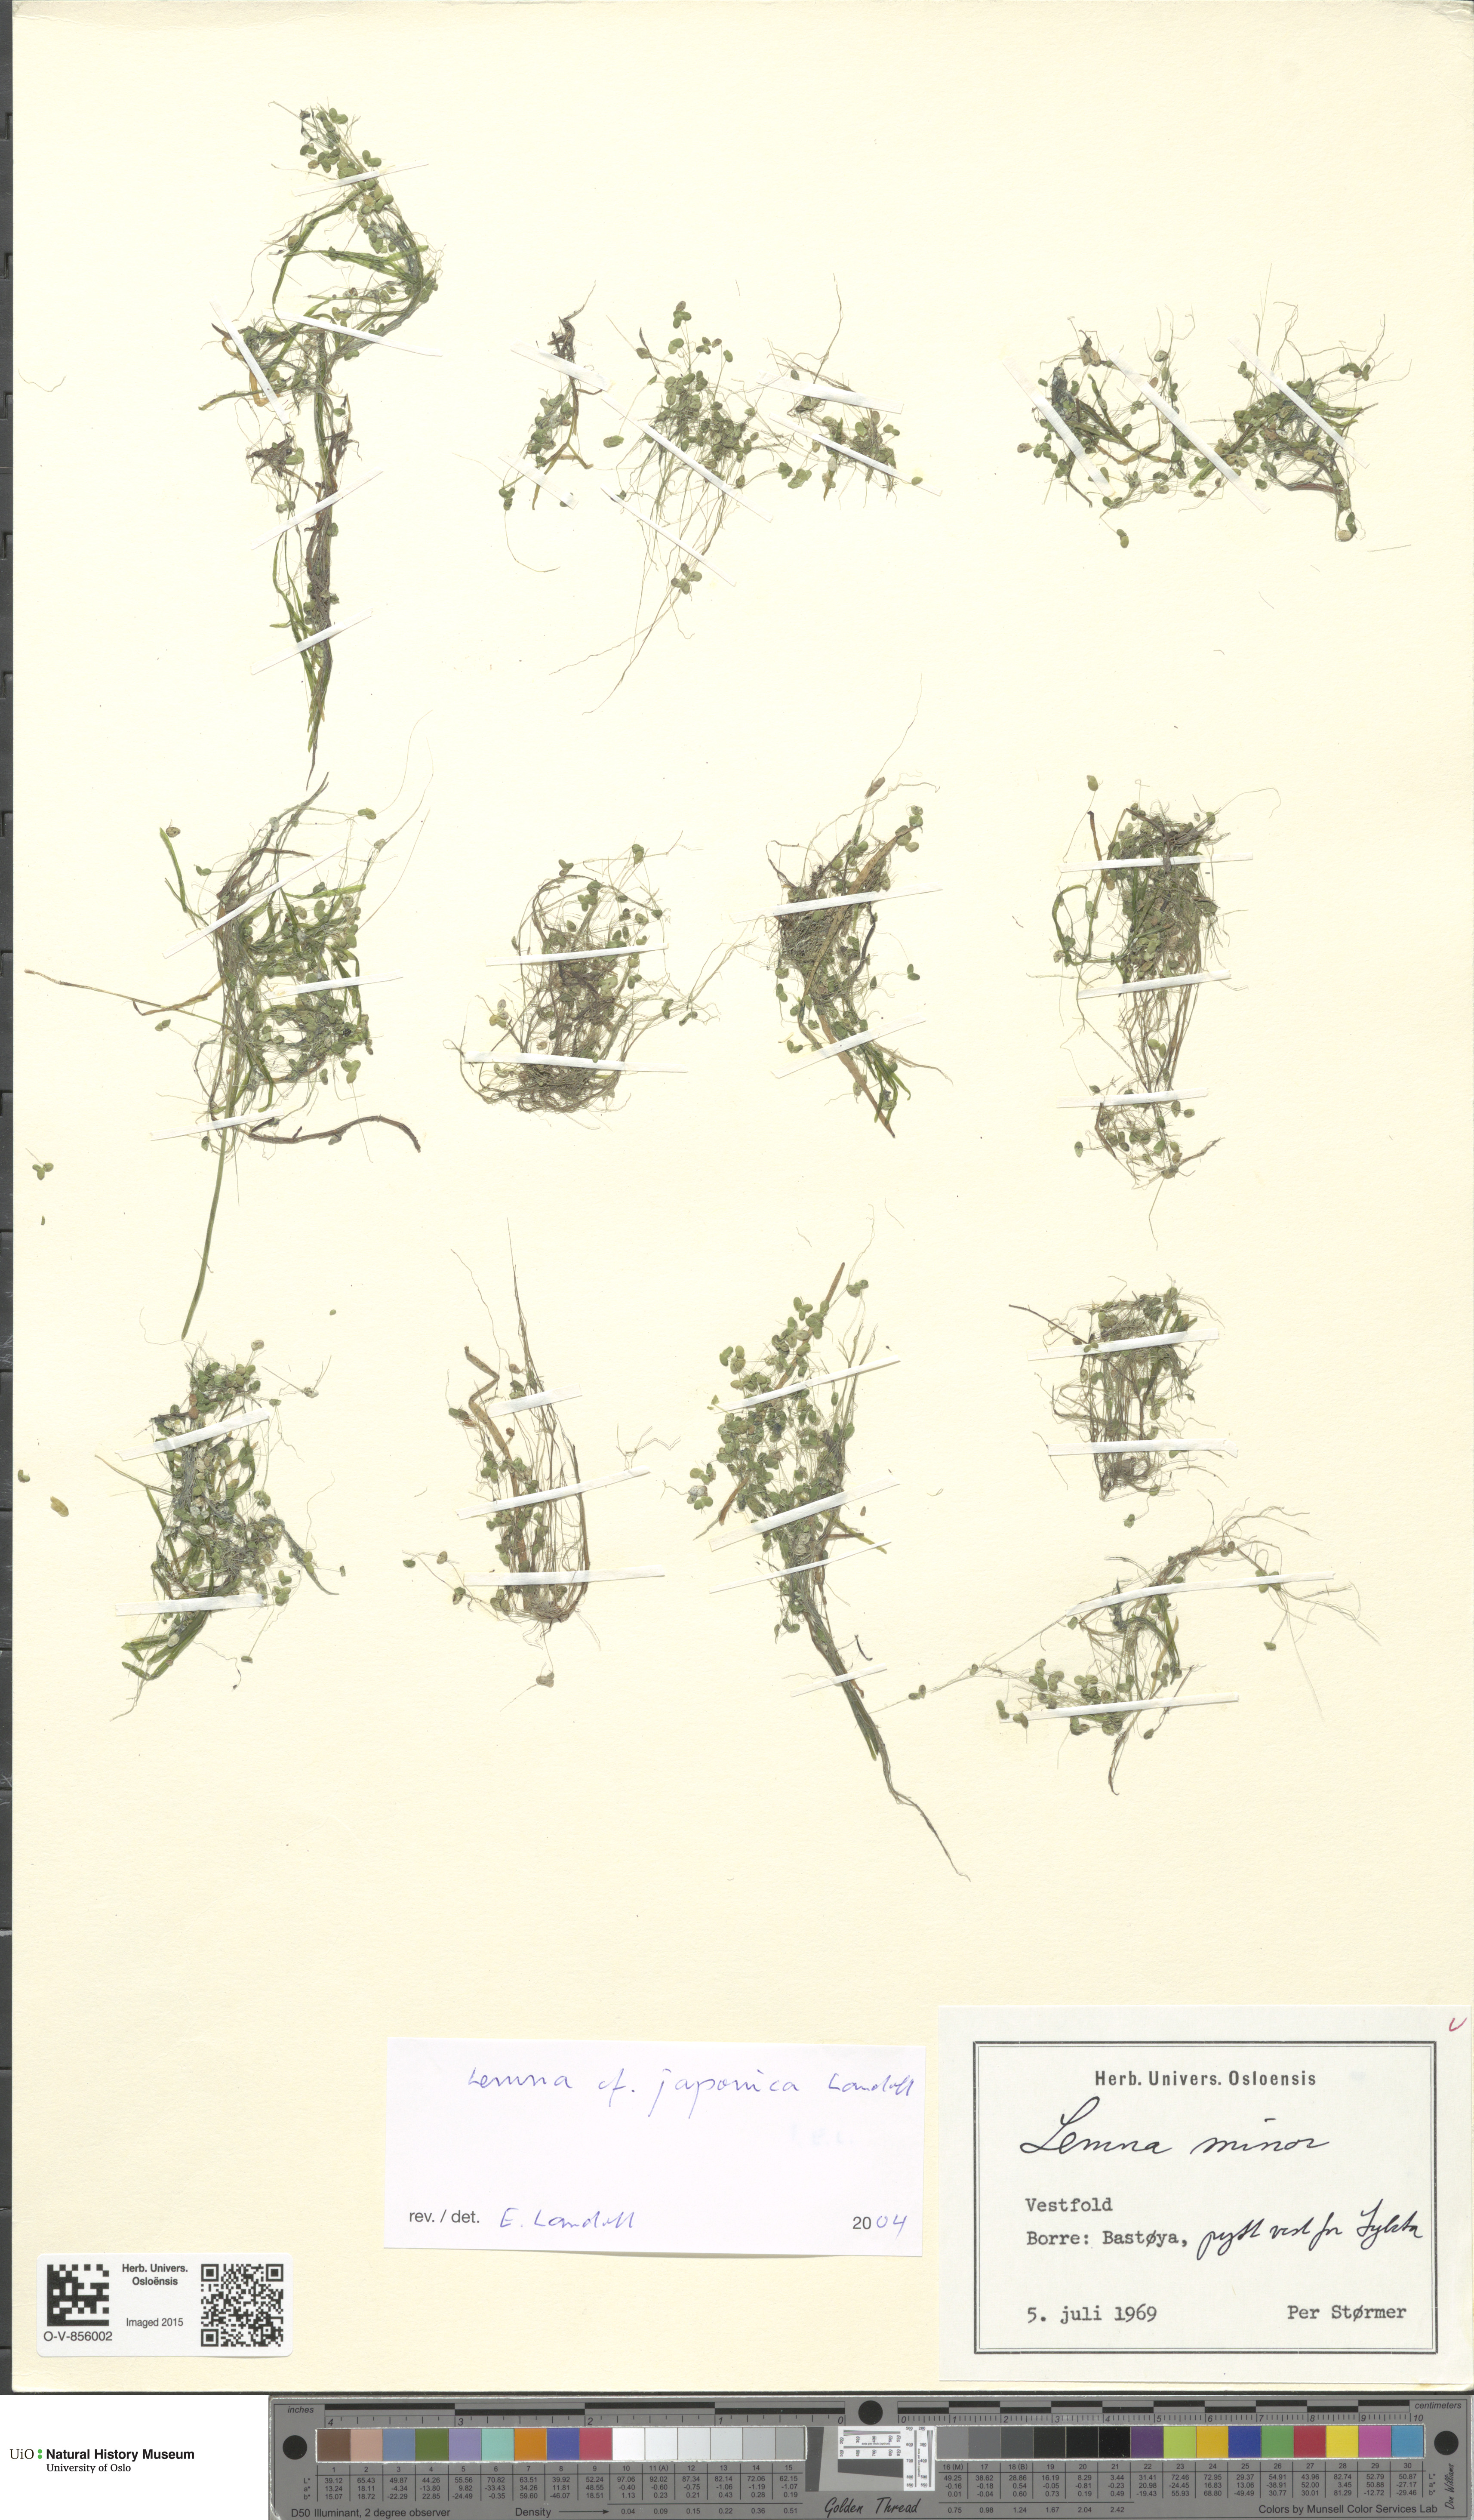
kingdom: Plantae
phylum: Tracheophyta
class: Liliopsida
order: Alismatales
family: Araceae
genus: Lemna
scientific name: Lemna japonica
